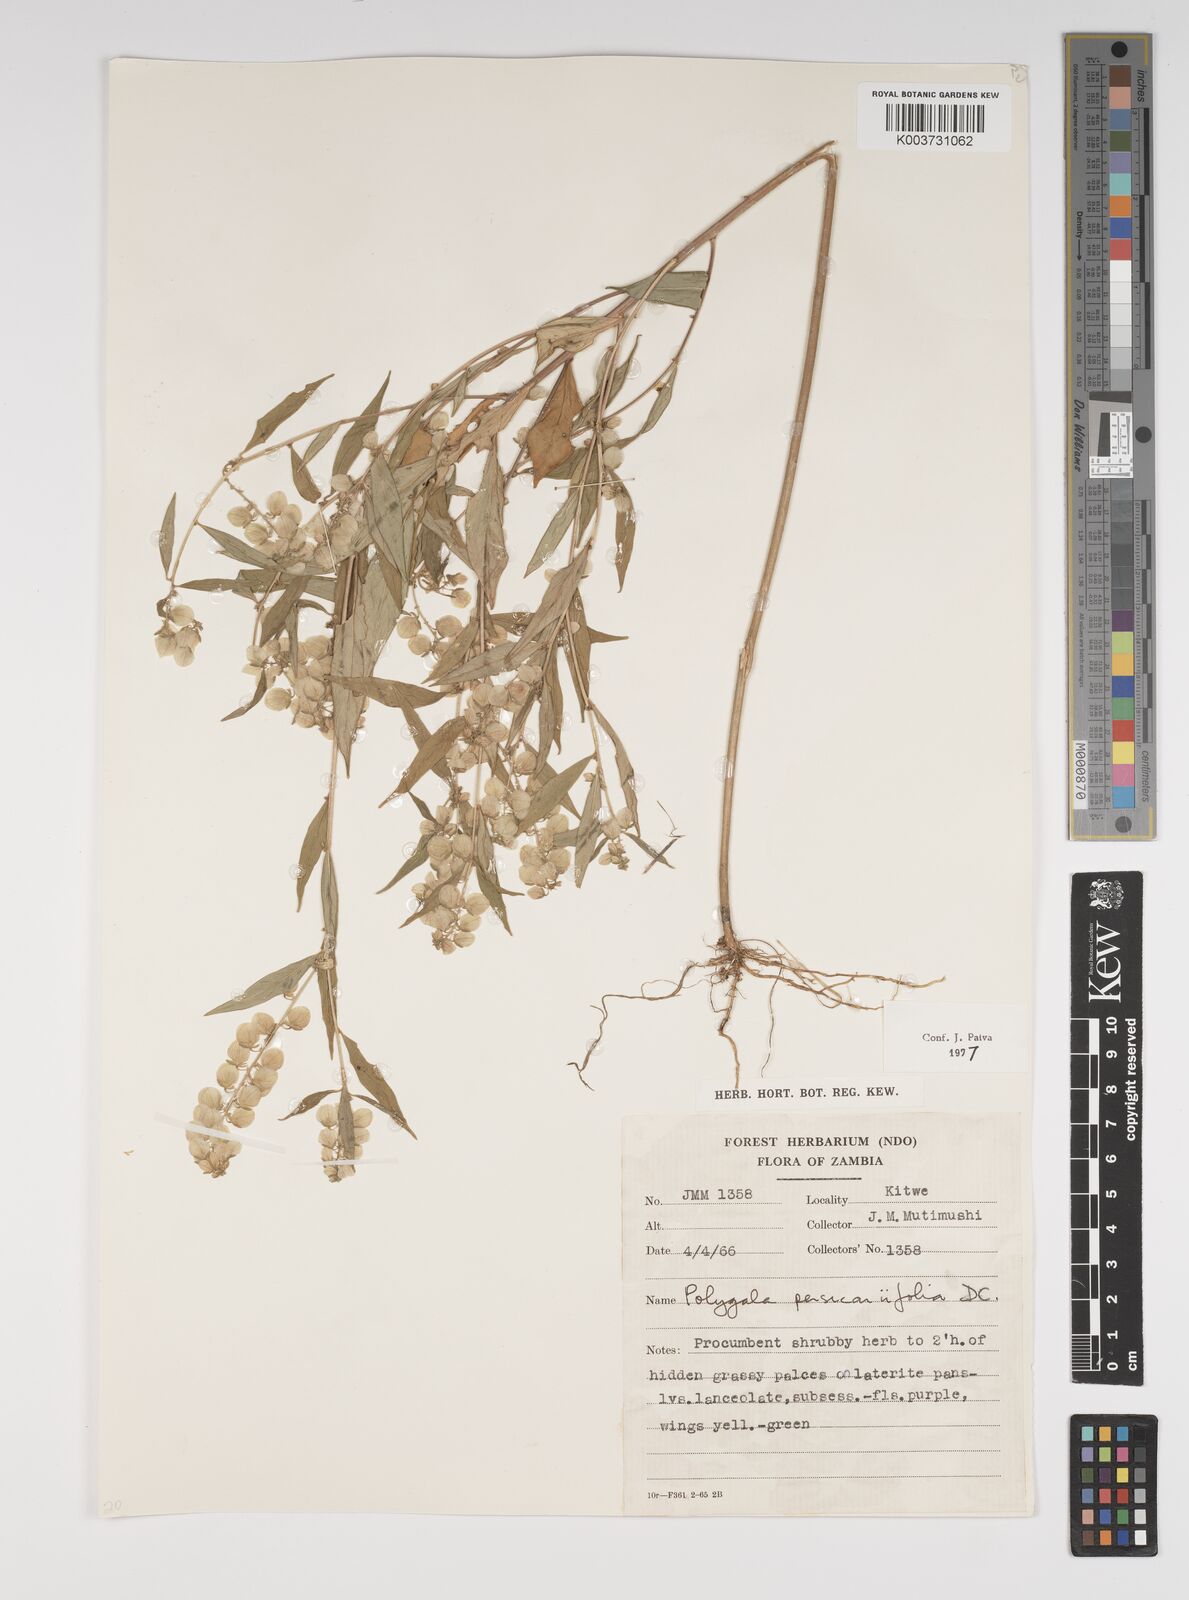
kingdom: Plantae
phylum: Tracheophyta
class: Magnoliopsida
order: Fabales
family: Polygalaceae
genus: Polygala
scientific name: Polygala persicariifolia
